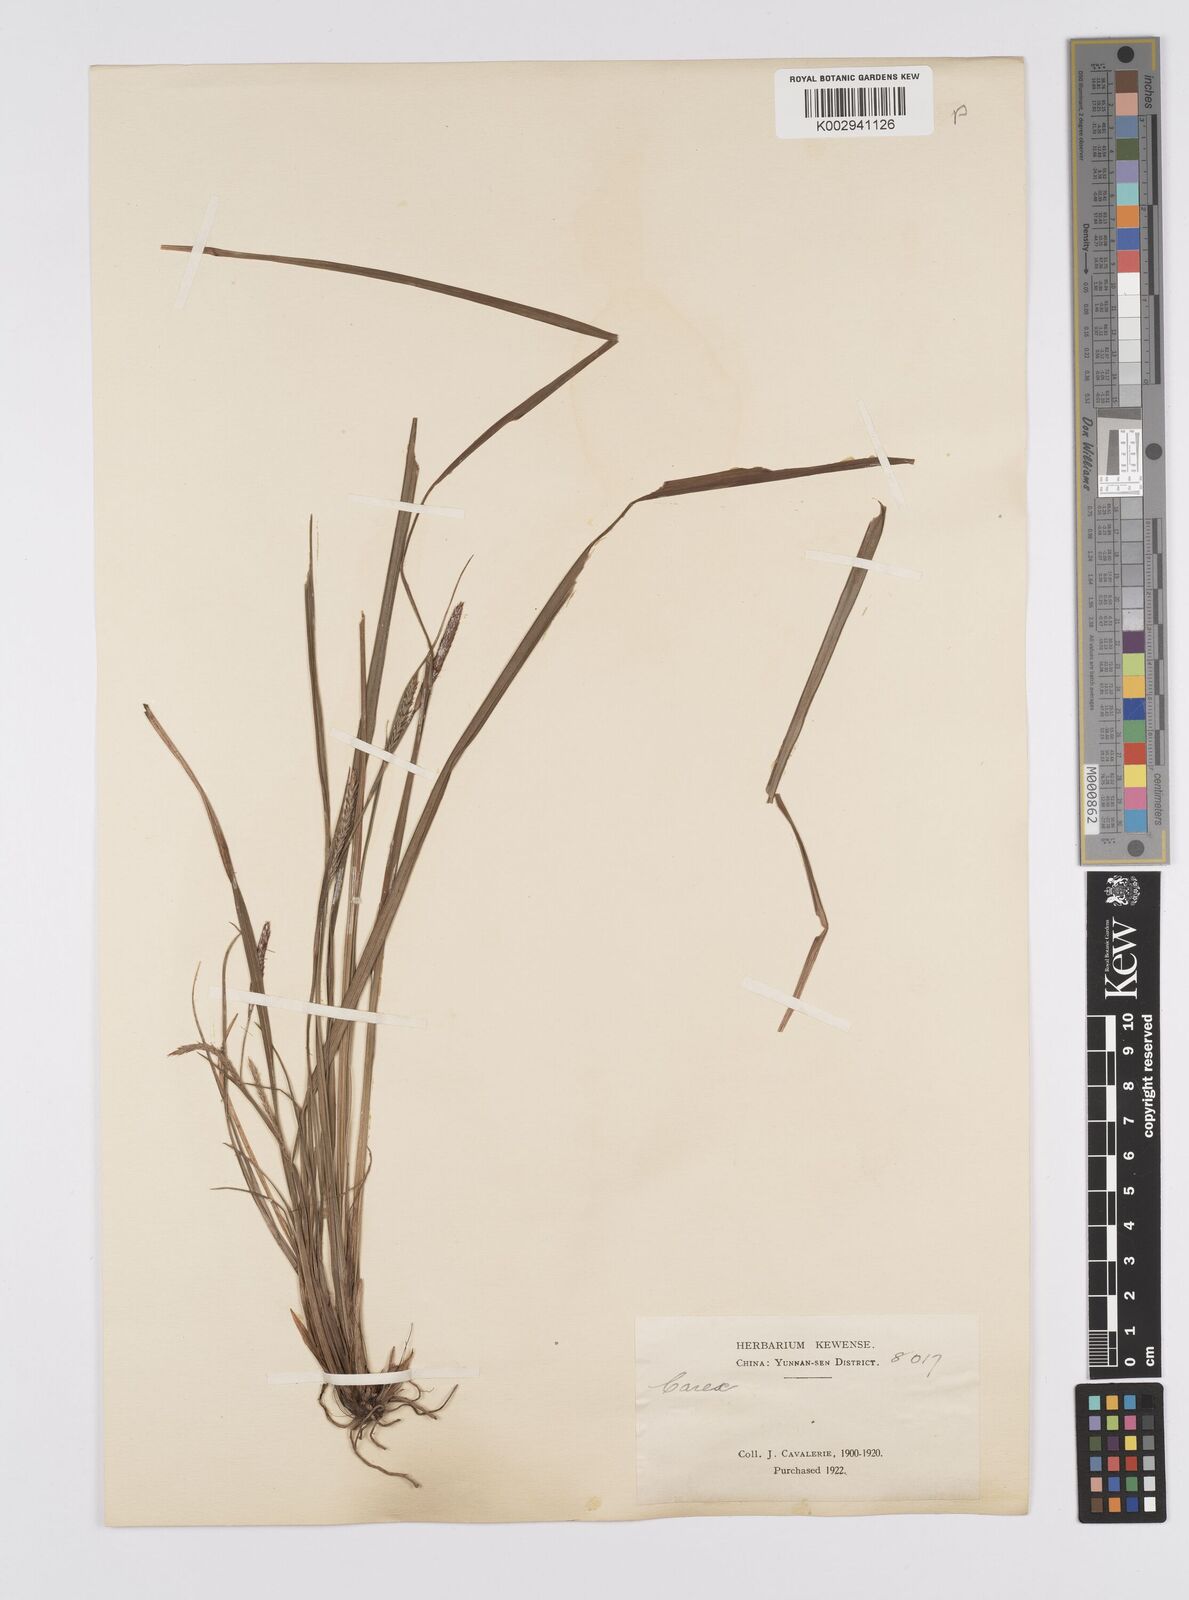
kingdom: Plantae
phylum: Tracheophyta
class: Liliopsida
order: Poales
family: Cyperaceae
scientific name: Cyperaceae
